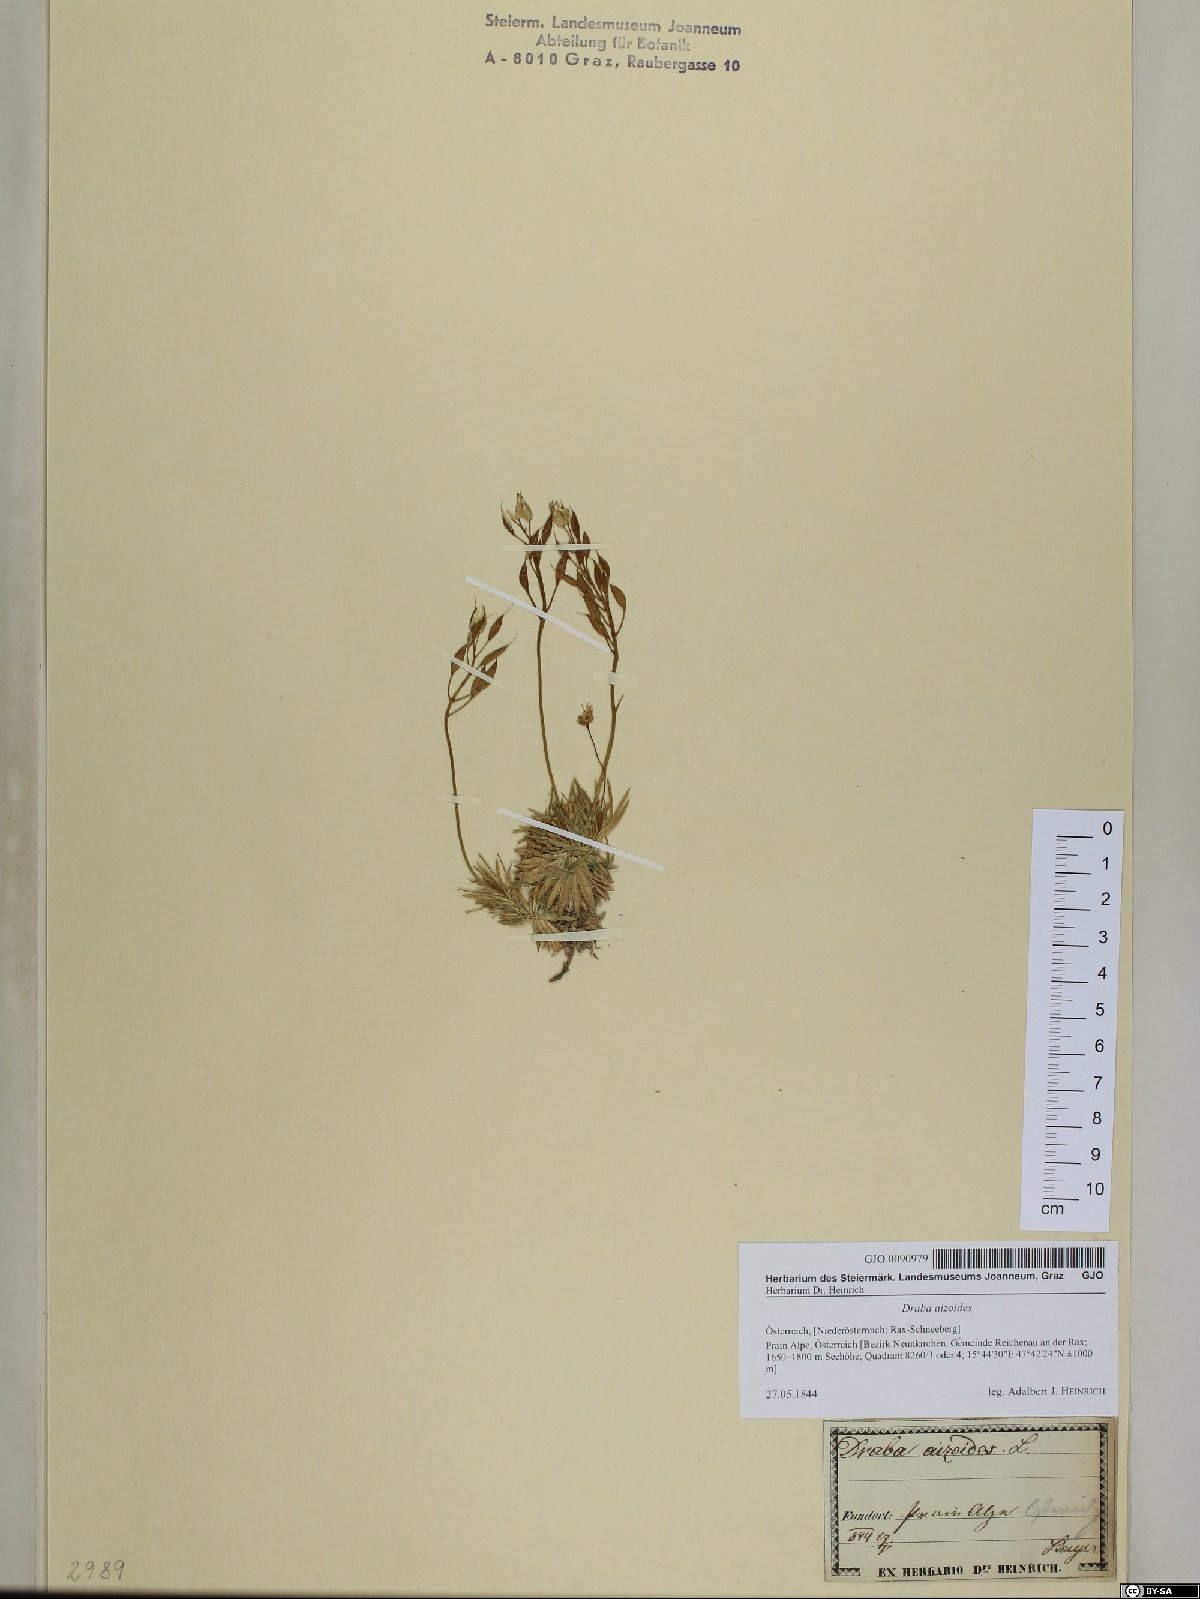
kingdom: Plantae
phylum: Tracheophyta
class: Magnoliopsida
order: Brassicales
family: Brassicaceae
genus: Draba
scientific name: Draba aizoides
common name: Yellow whitlowgrass
